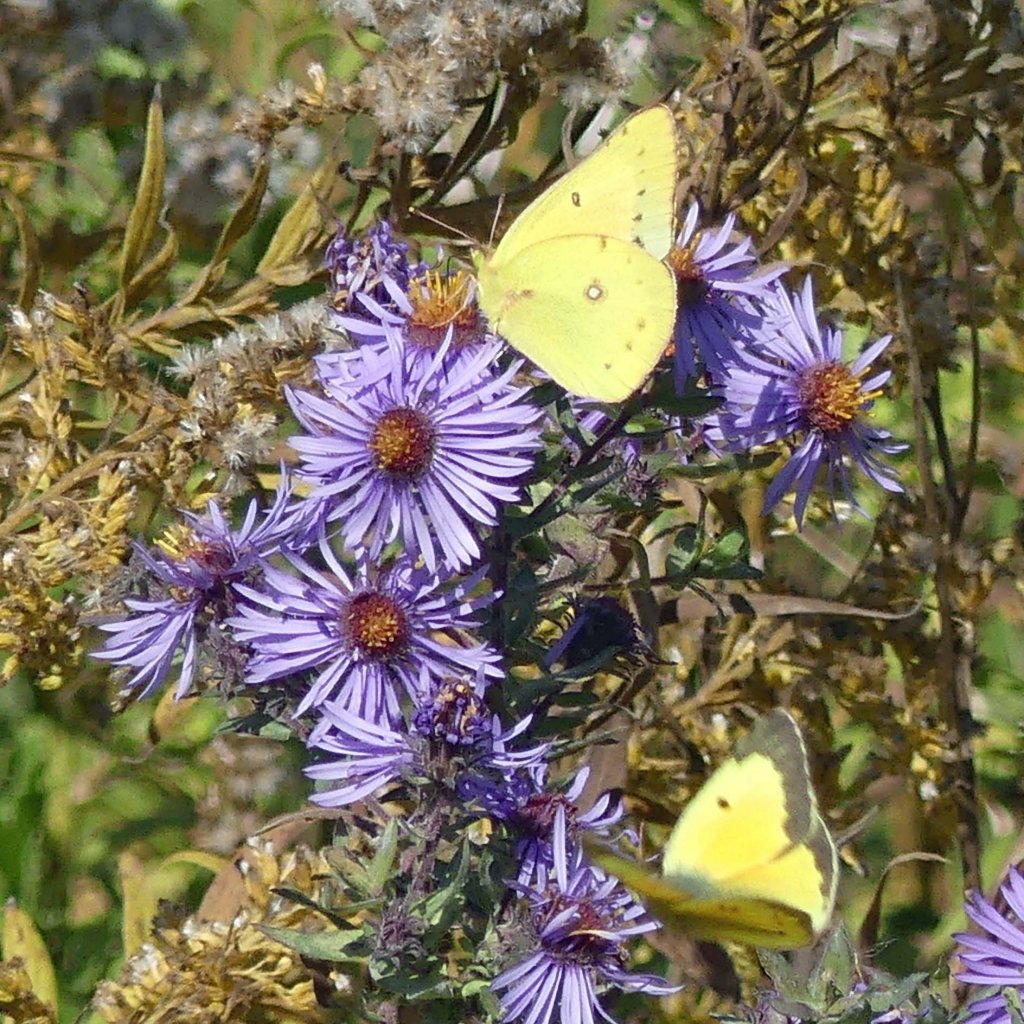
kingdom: Animalia
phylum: Arthropoda
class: Insecta
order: Lepidoptera
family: Pieridae
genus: Colias
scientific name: Colias eurytheme
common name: Orange Sulphur
